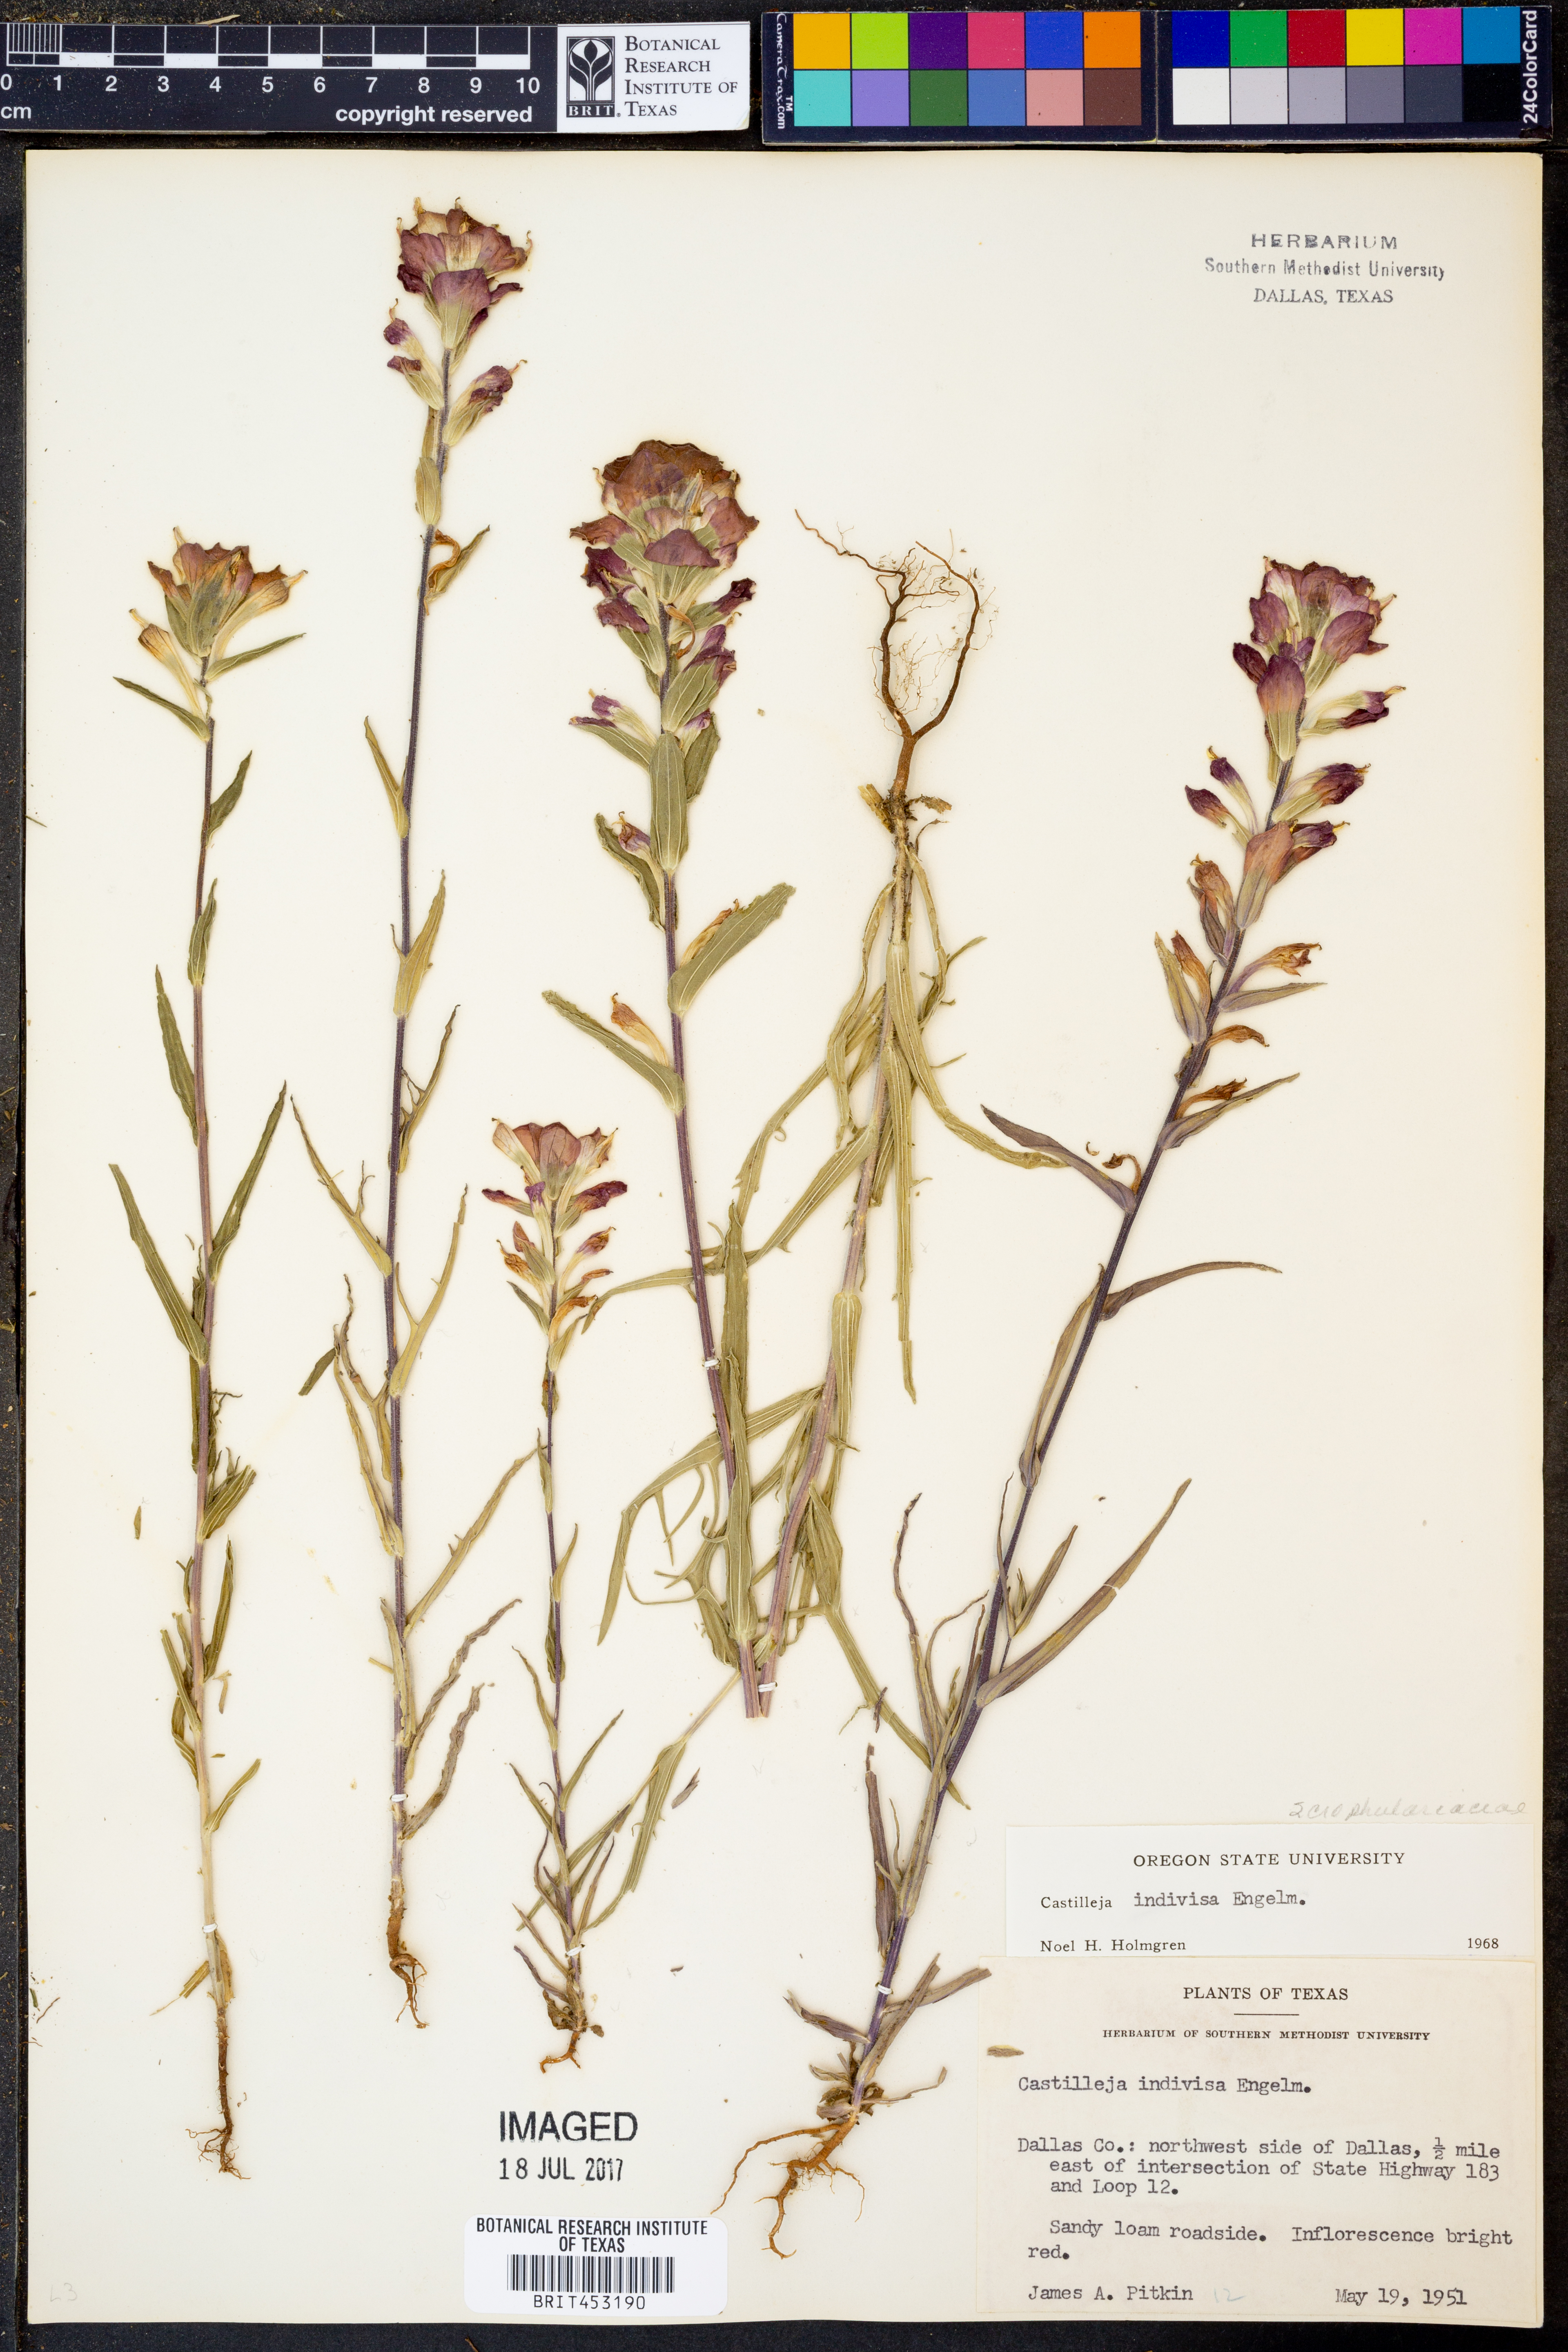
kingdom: Plantae
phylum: Tracheophyta
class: Magnoliopsida
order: Lamiales
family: Orobanchaceae
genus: Castilleja
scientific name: Castilleja indivisa
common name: Texas paintbrush
